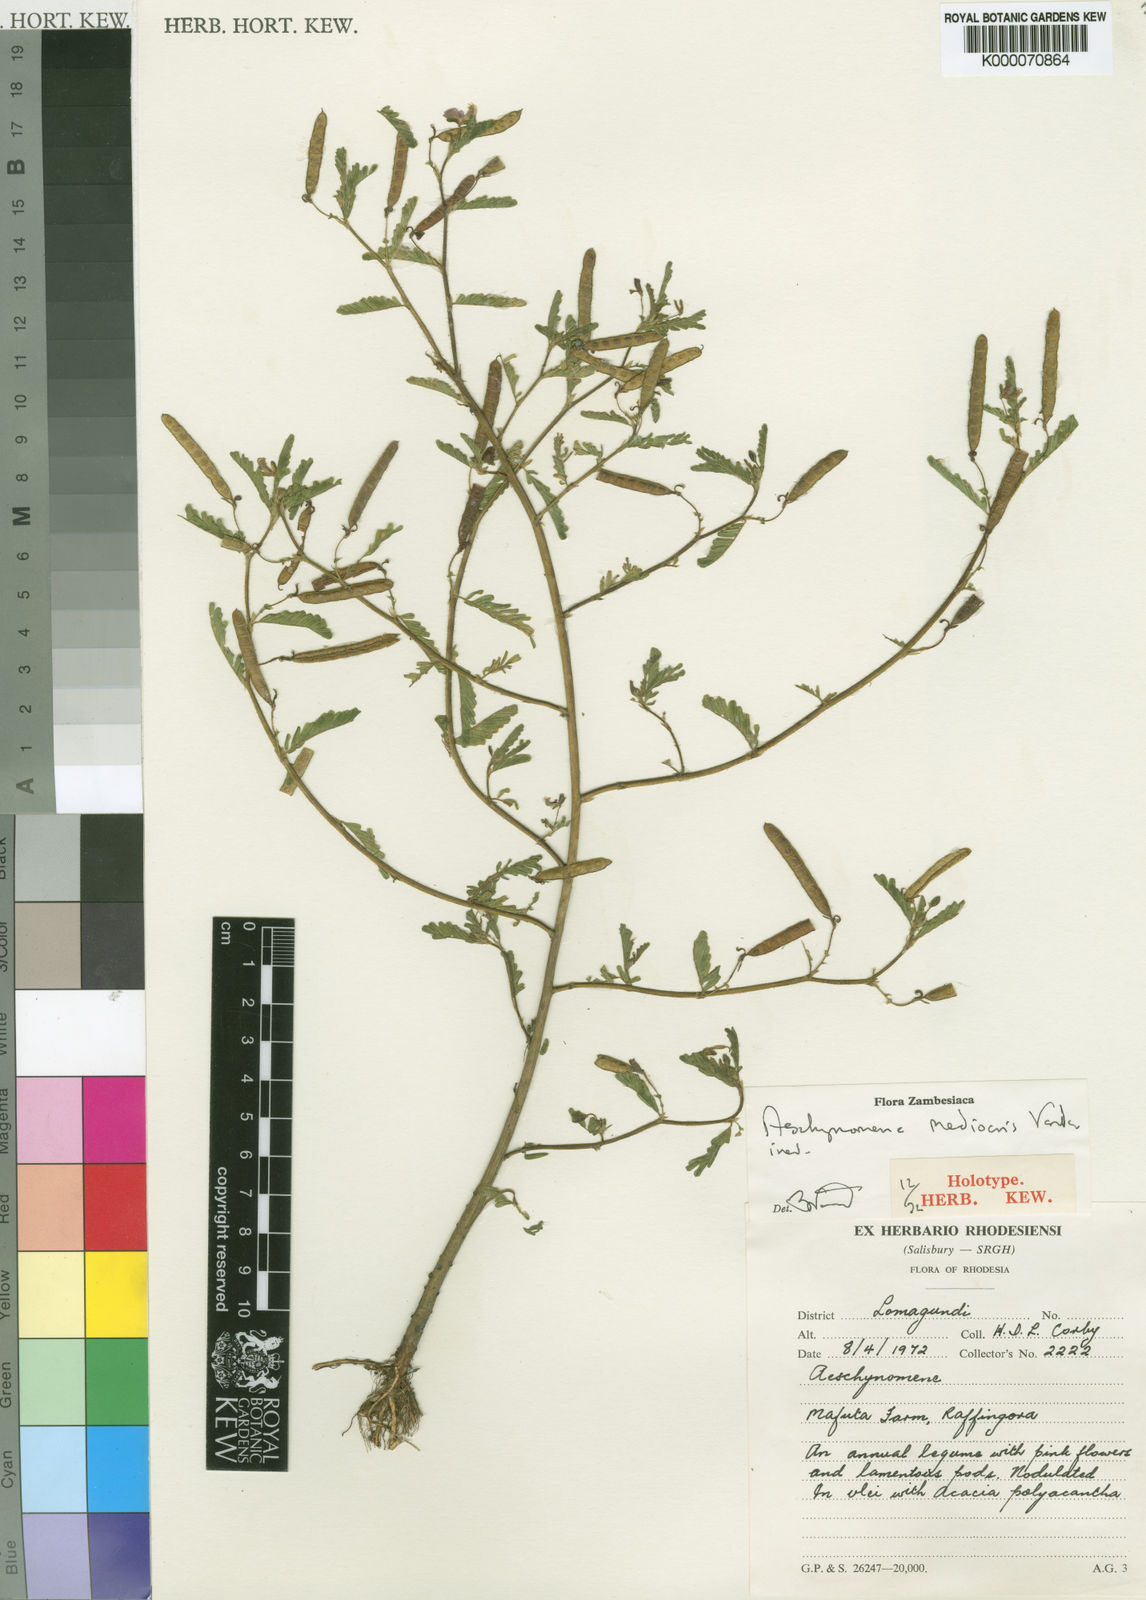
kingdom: Plantae
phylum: Tracheophyta
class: Magnoliopsida
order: Fabales
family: Fabaceae
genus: Aeschynomene
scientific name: Aeschynomene mediocris
